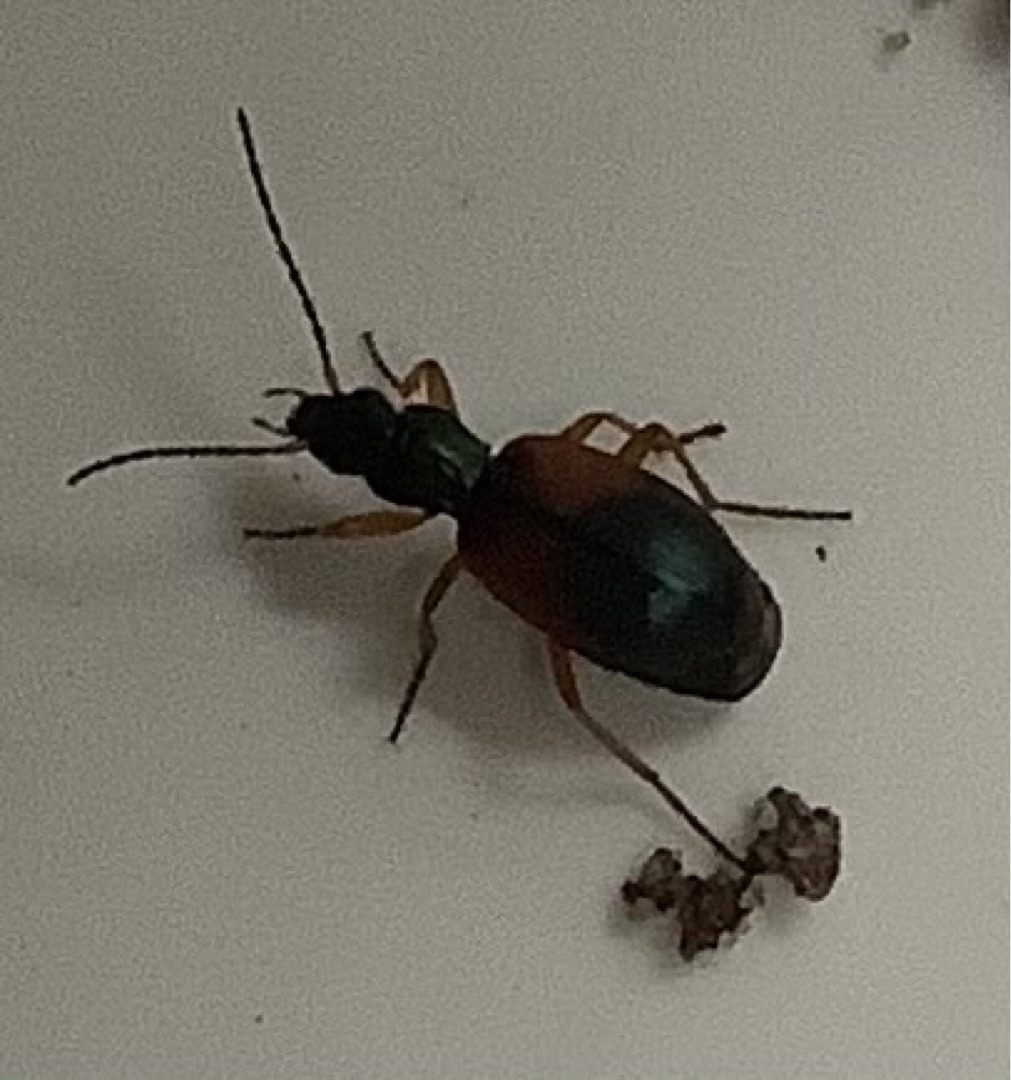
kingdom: Animalia
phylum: Arthropoda
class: Insecta
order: Coleoptera
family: Carabidae
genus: Anchomenus
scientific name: Anchomenus dorsalis
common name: Spraglet kvikløber
